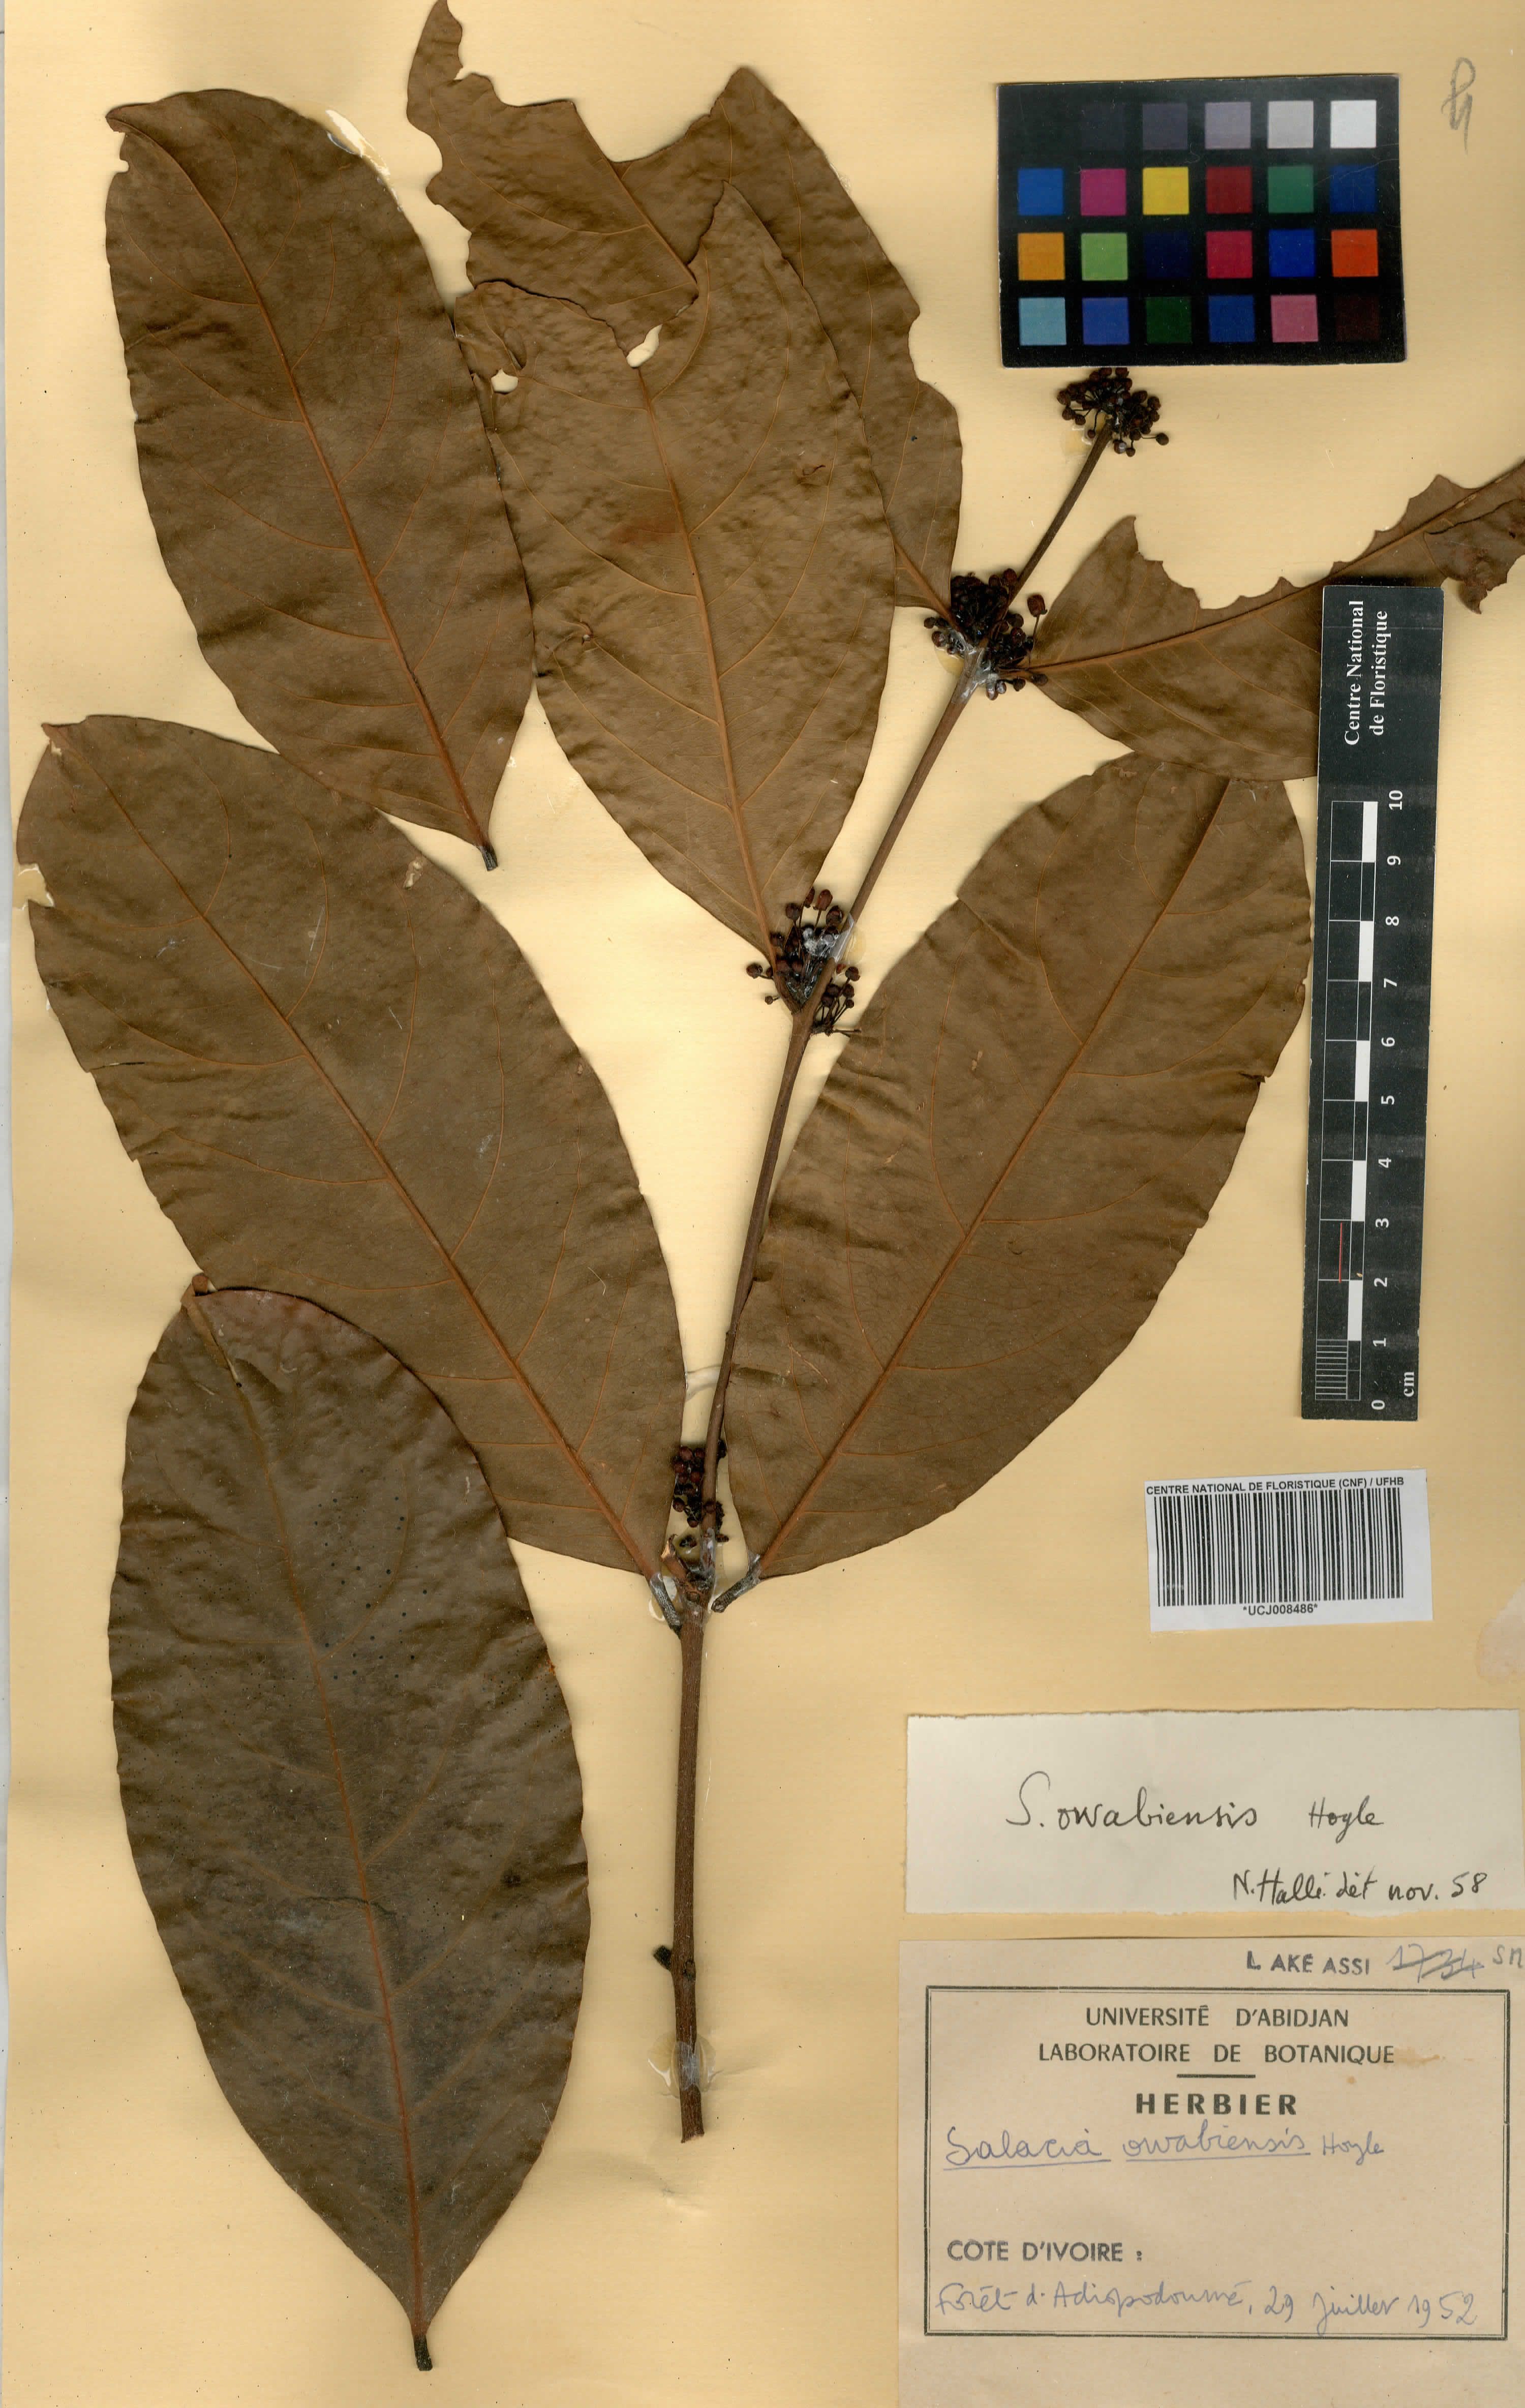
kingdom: Plantae
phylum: Tracheophyta
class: Magnoliopsida
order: Celastrales
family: Celastraceae
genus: Salacia
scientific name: Salacia owabiensis
